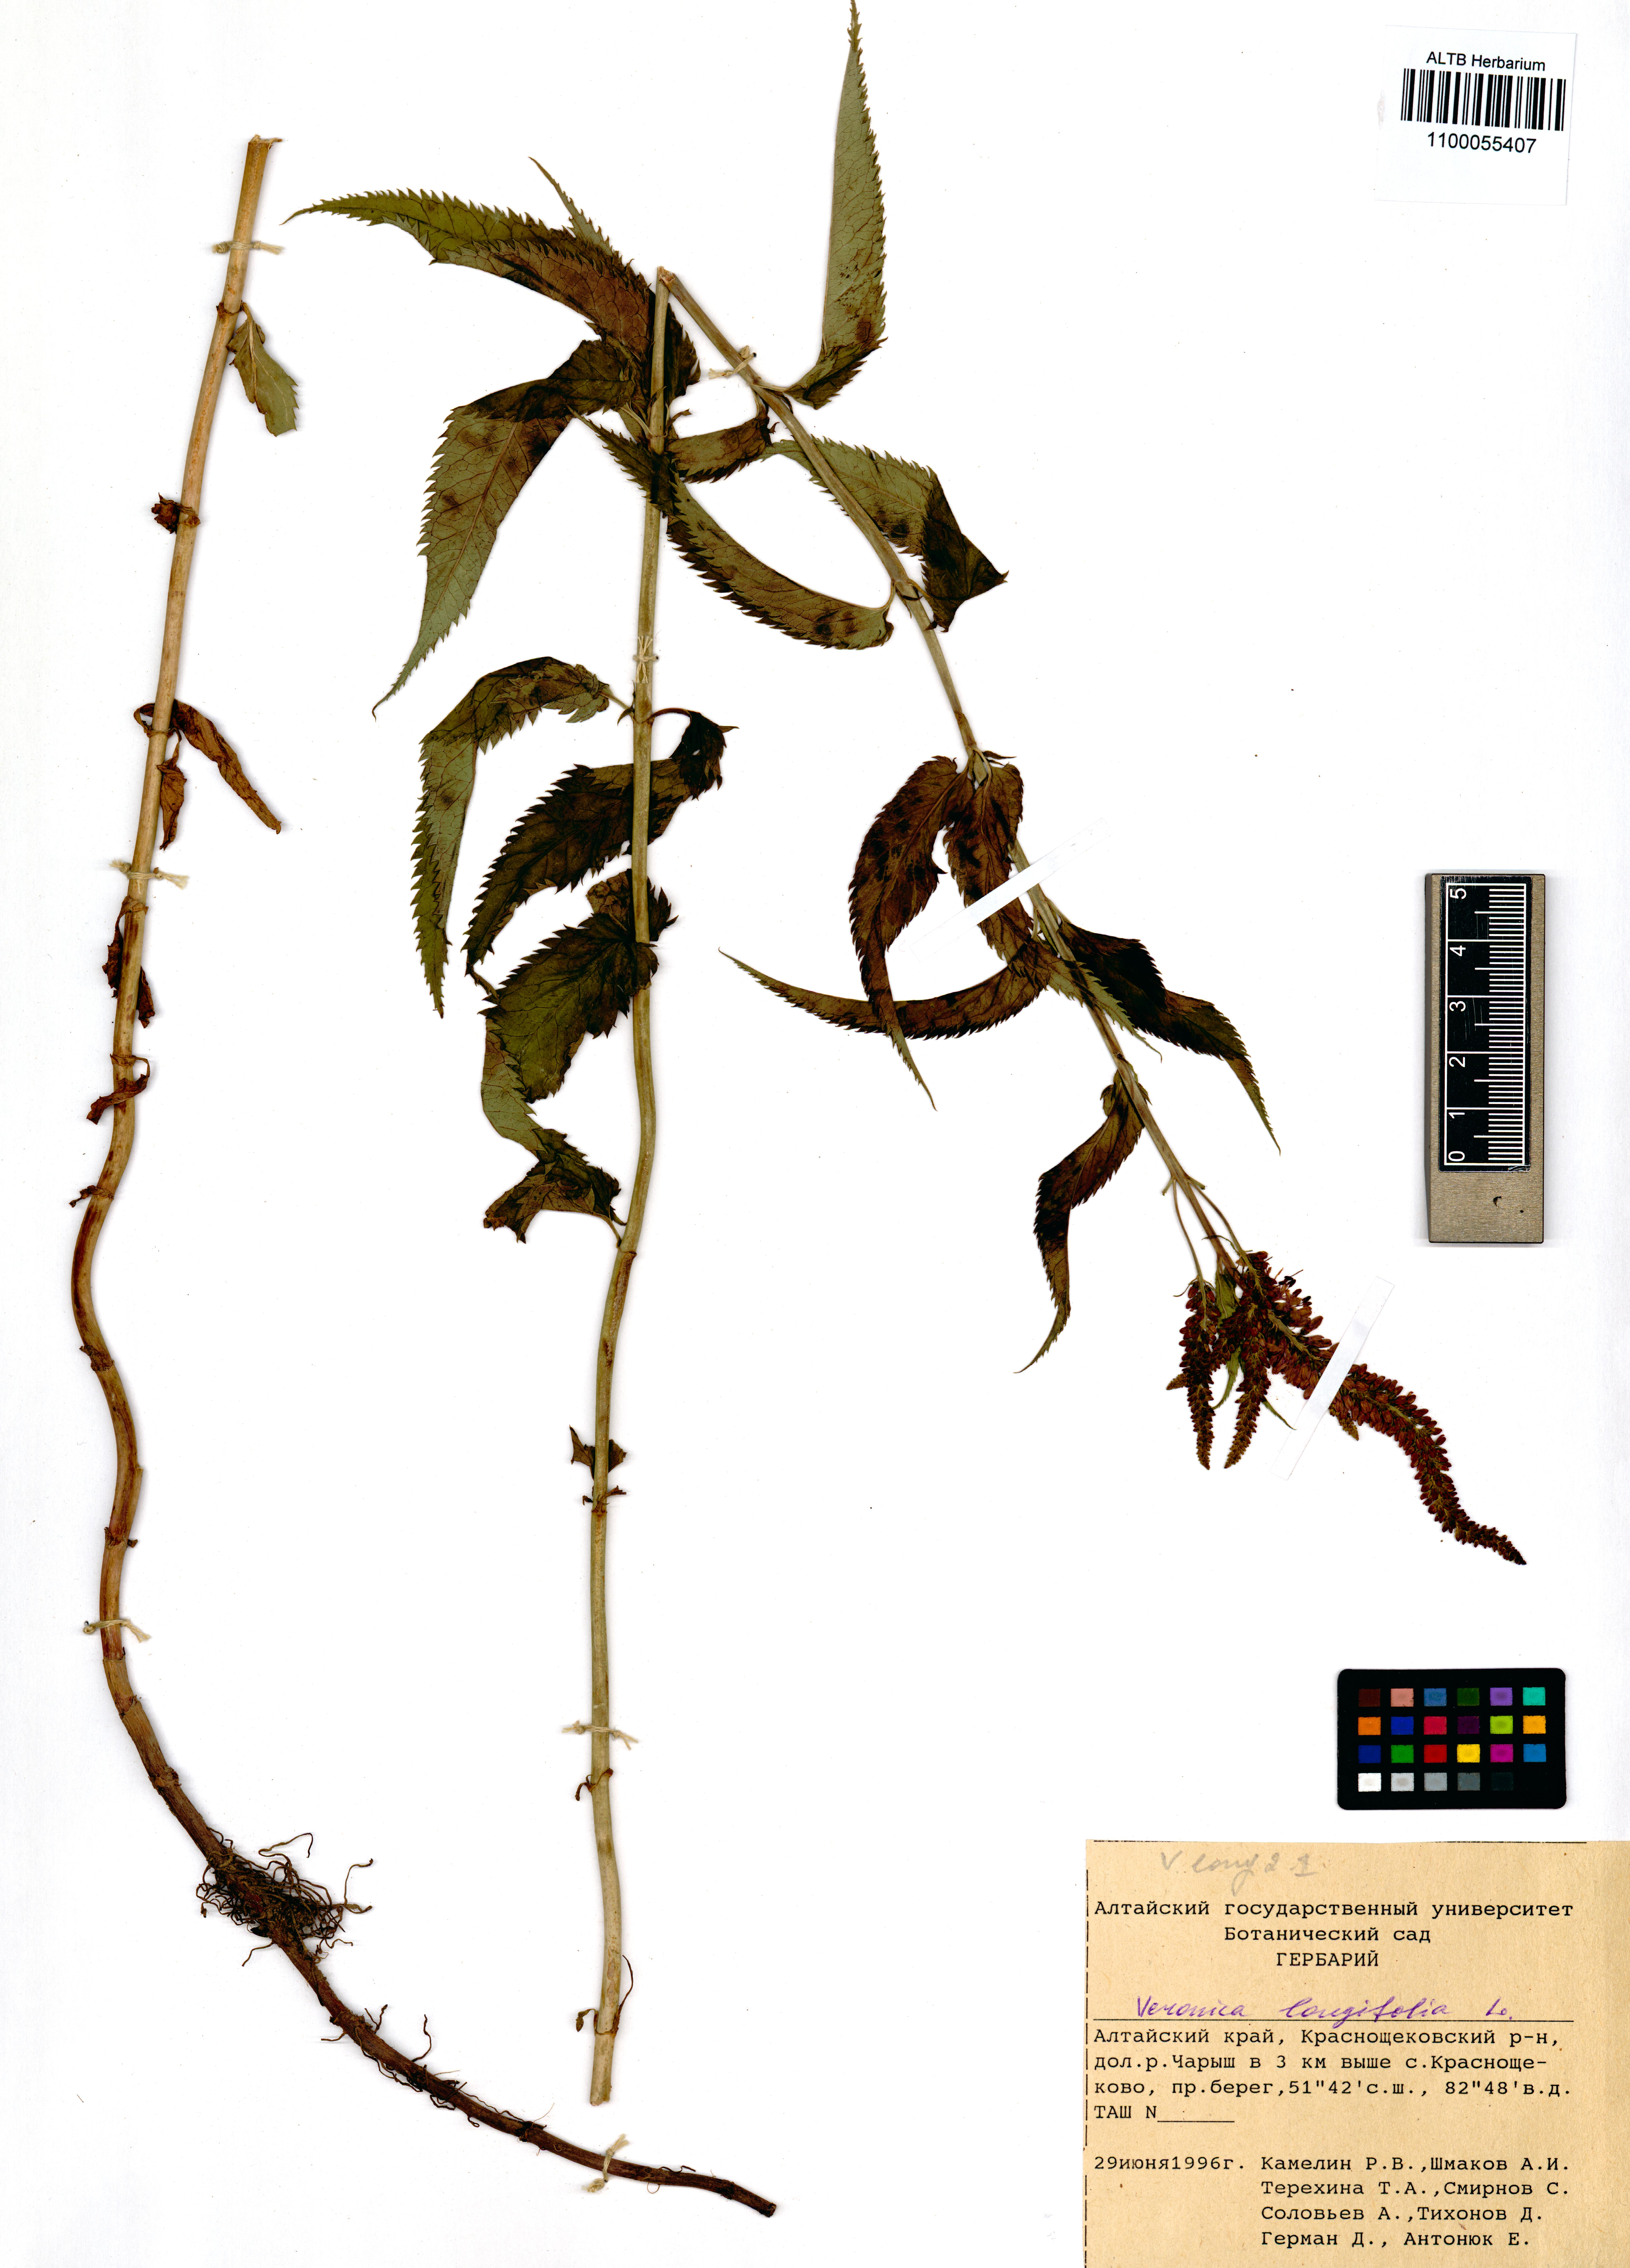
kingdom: Plantae
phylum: Tracheophyta
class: Magnoliopsida
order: Lamiales
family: Plantaginaceae
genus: Veronica
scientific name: Veronica longifolia
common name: Garden speedwell
